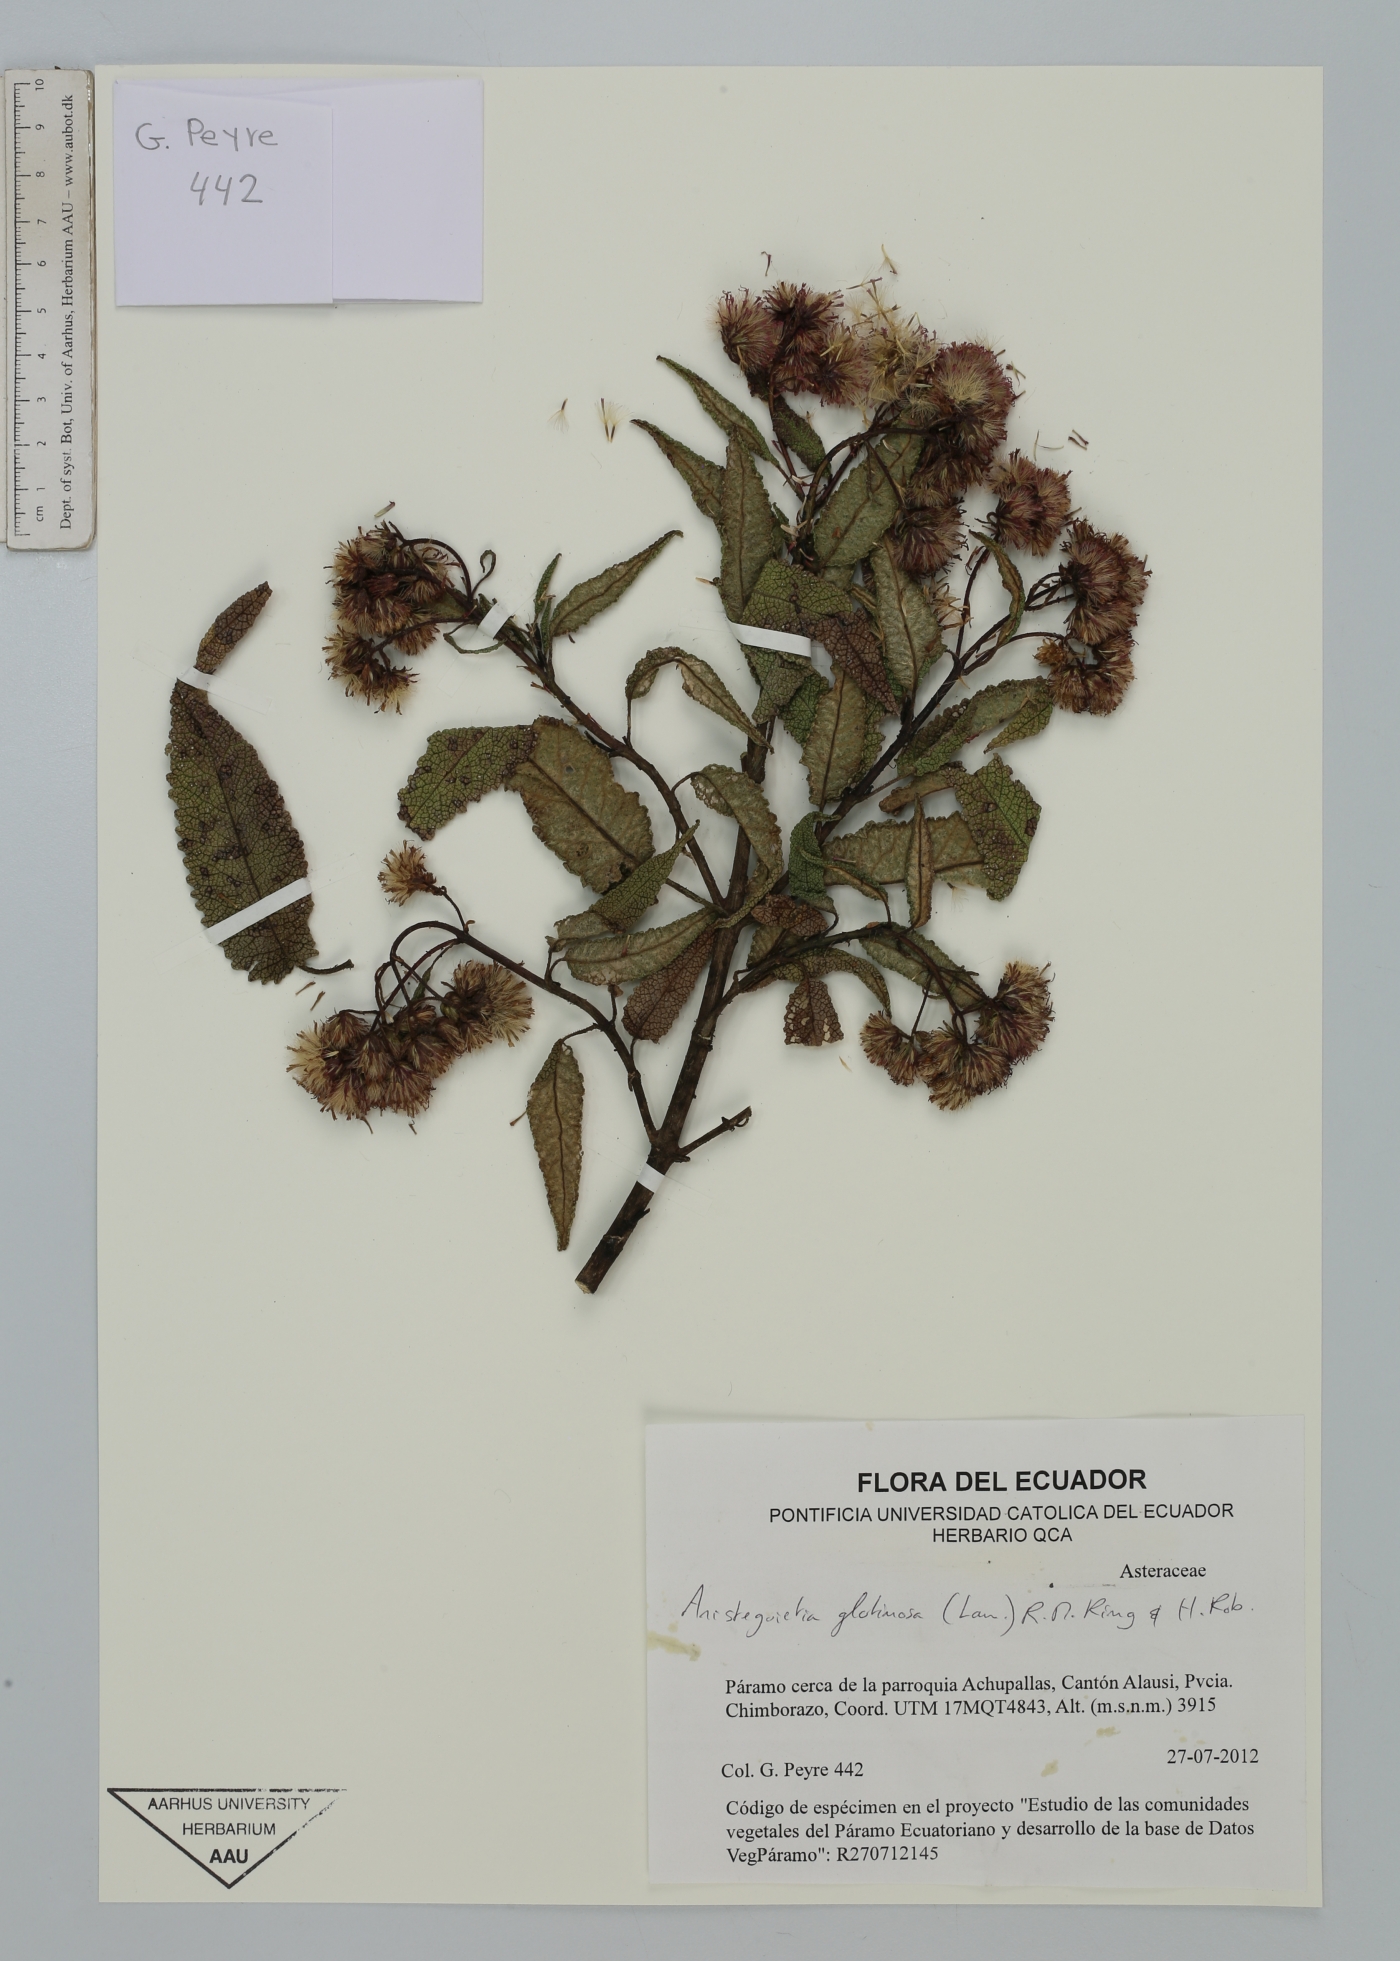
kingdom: Plantae
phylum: Tracheophyta
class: Magnoliopsida
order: Asterales
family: Asteraceae
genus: Aristeguietia
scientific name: Aristeguietia glutinosa
